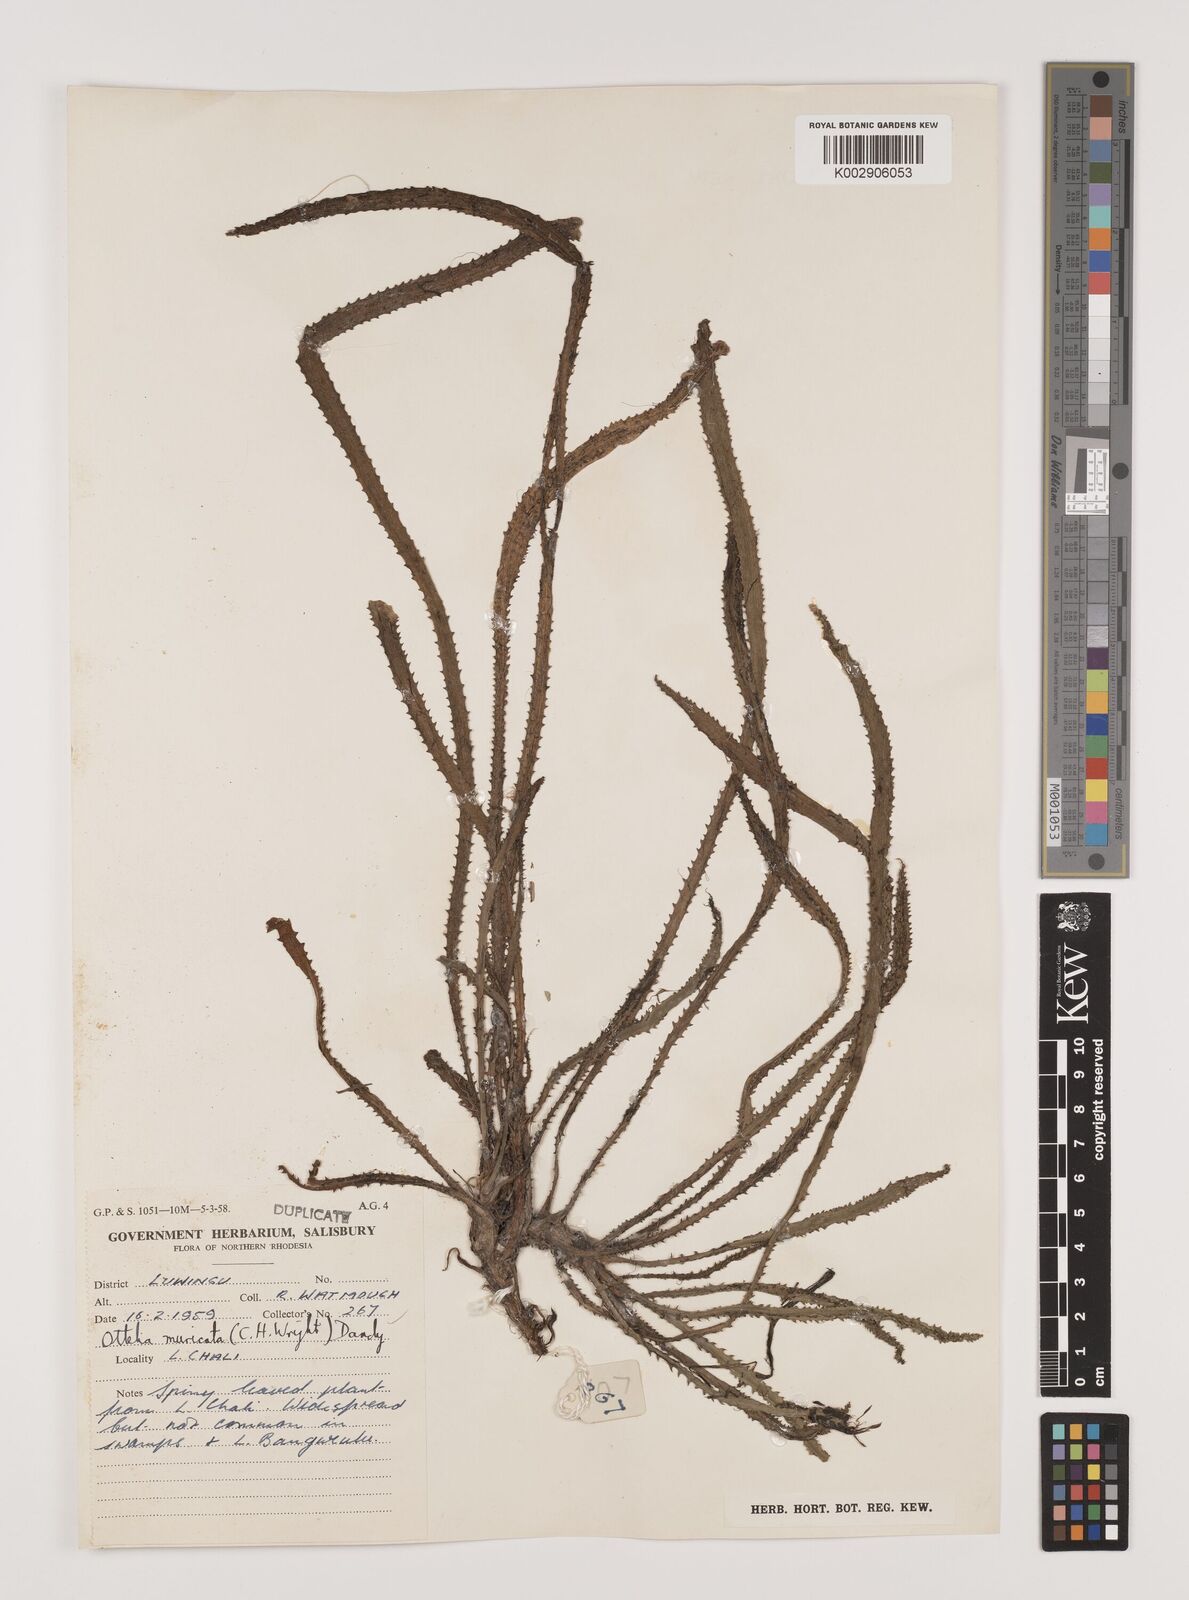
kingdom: Plantae
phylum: Tracheophyta
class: Liliopsida
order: Alismatales
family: Hydrocharitaceae
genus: Ottelia
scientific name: Ottelia muricata
